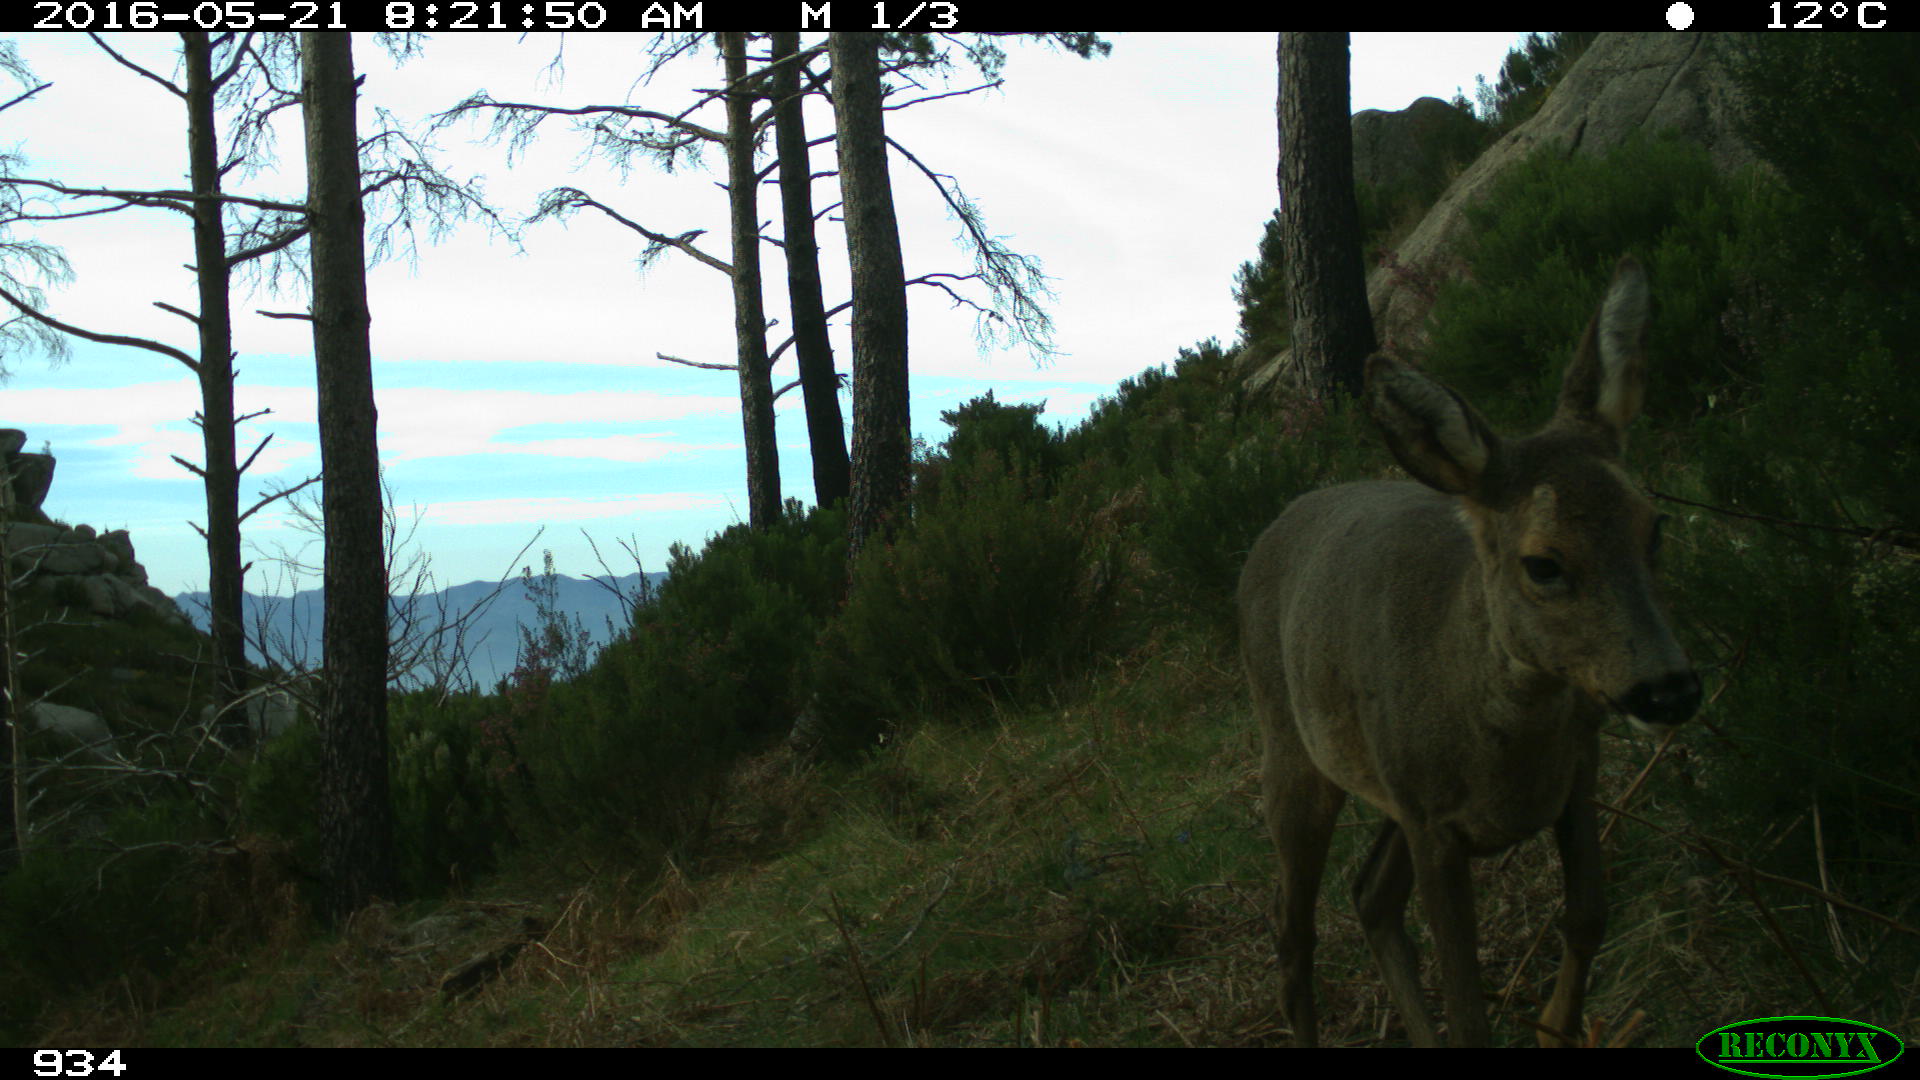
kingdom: Animalia
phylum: Chordata
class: Mammalia
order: Artiodactyla
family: Cervidae
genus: Capreolus
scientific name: Capreolus capreolus
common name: Western roe deer
